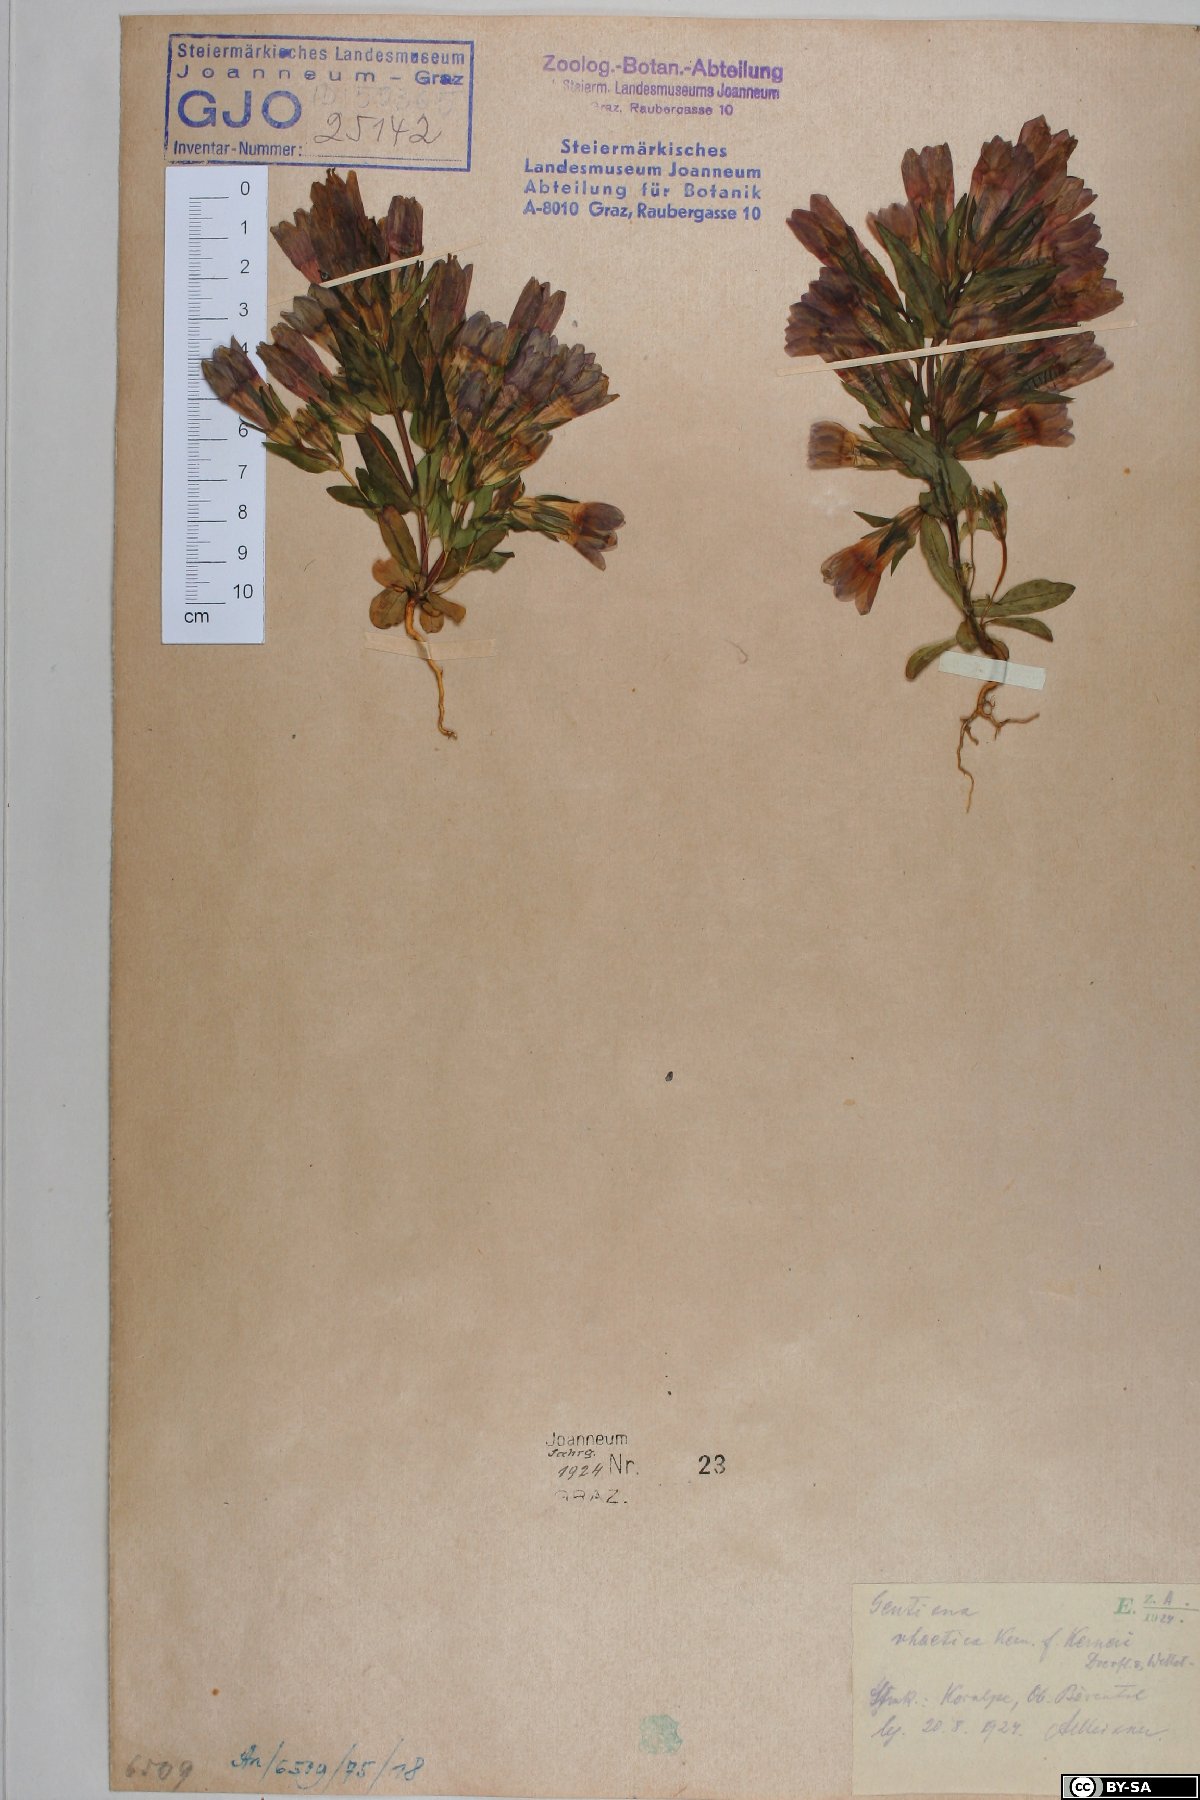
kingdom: Plantae
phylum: Tracheophyta
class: Magnoliopsida
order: Gentianales
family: Gentianaceae
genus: Gentianella
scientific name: Gentianella rhaetica
